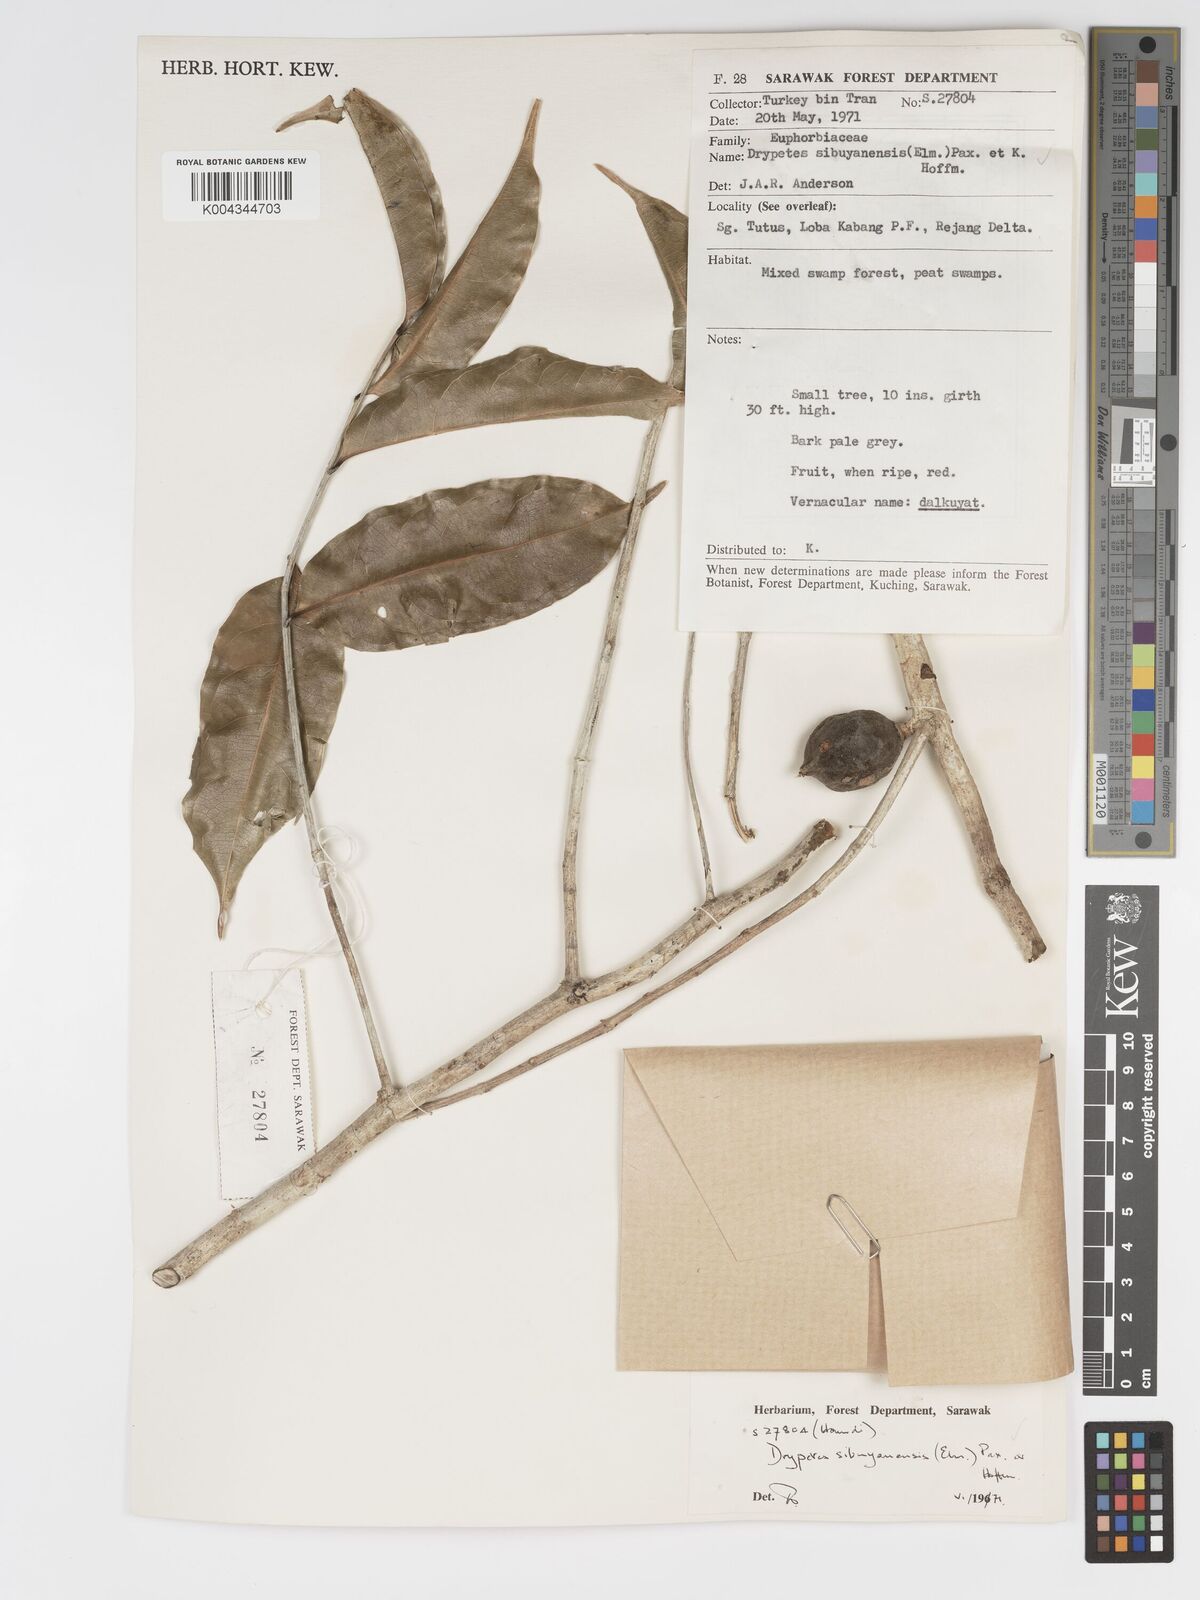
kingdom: Plantae
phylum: Tracheophyta
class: Magnoliopsida
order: Malpighiales
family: Putranjivaceae
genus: Drypetes
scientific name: Drypetes sibuyanensis
